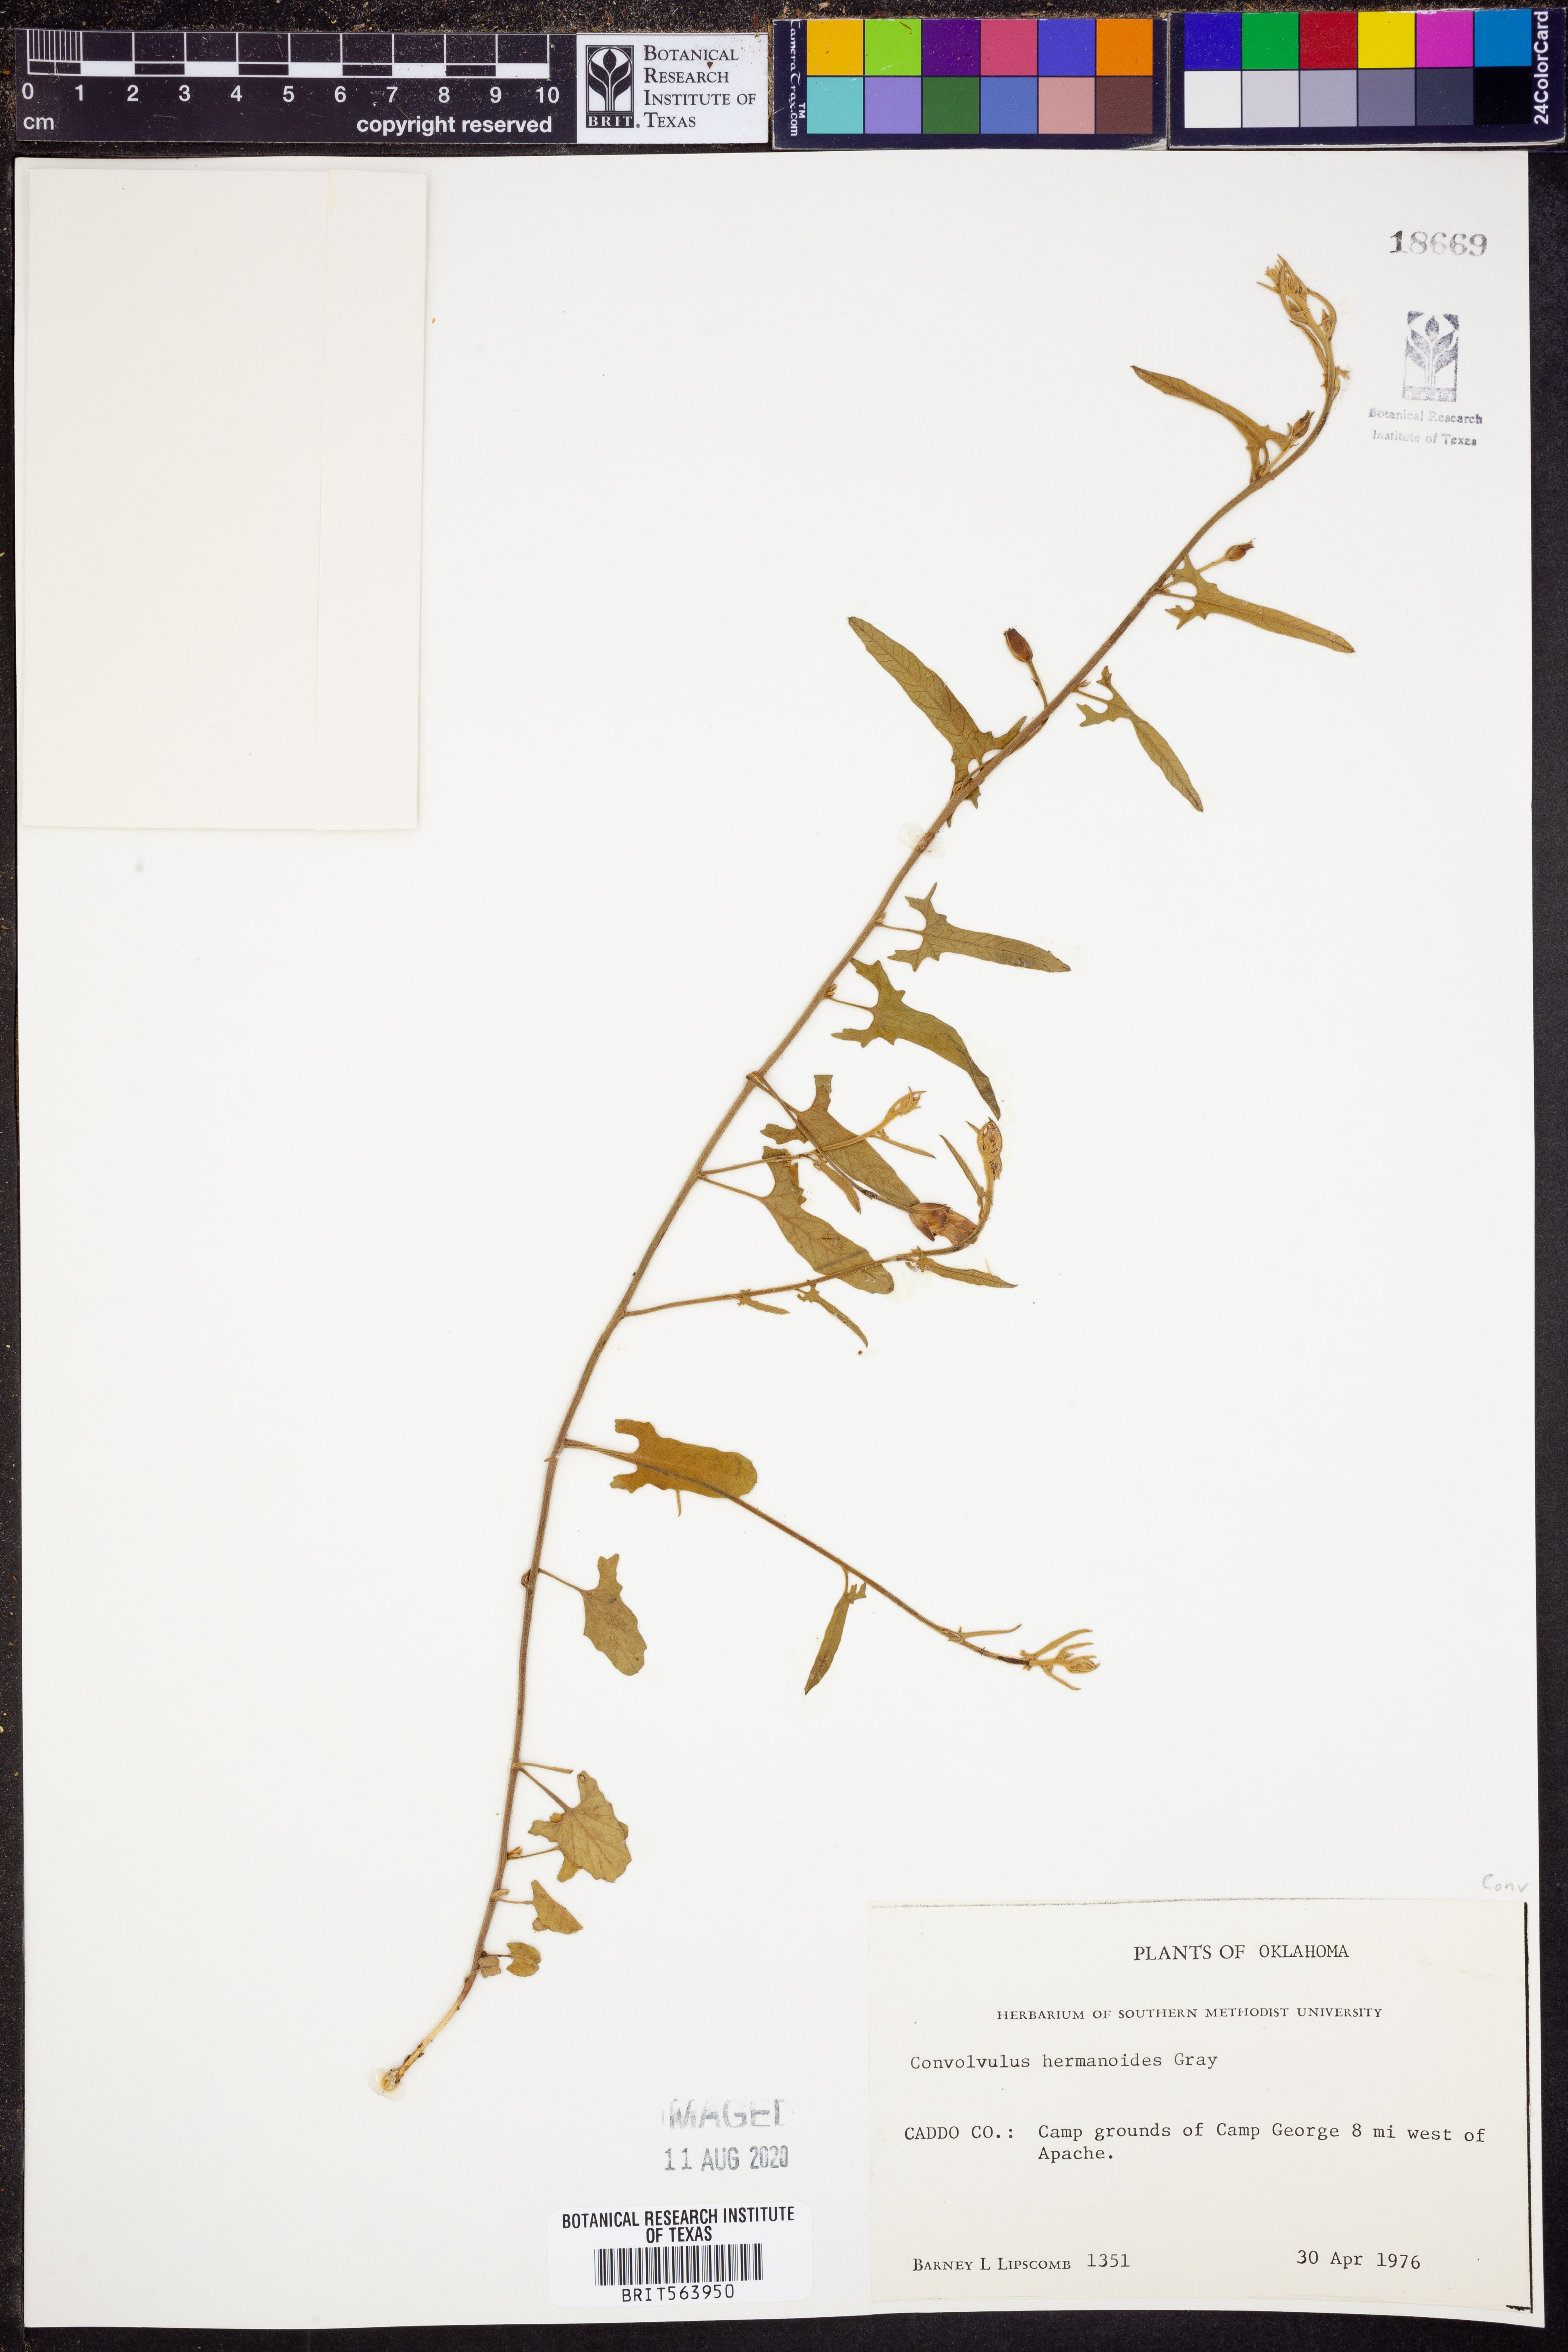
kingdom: Plantae
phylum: Tracheophyta
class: Magnoliopsida
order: Solanales
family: Convolvulaceae
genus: Convolvulus
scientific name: Convolvulus equitans
